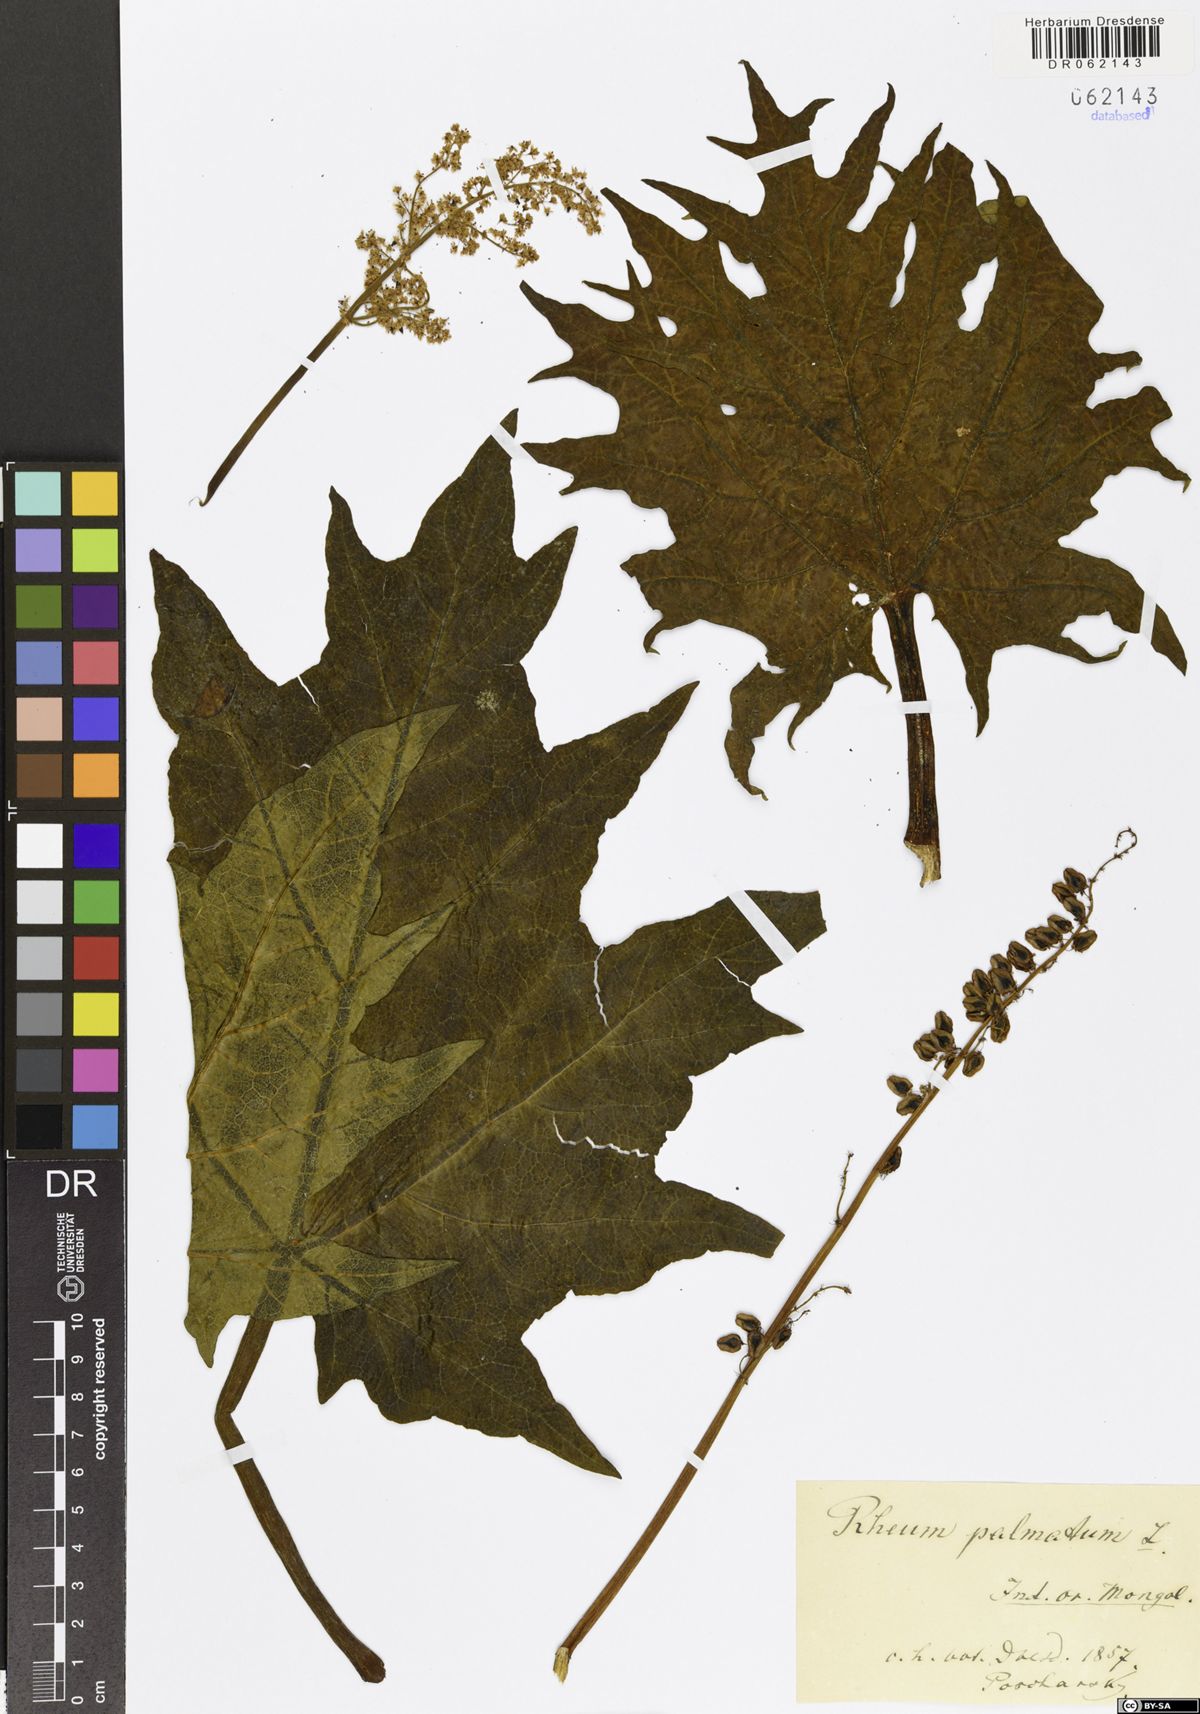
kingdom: Plantae
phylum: Tracheophyta
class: Magnoliopsida
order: Caryophyllales
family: Polygonaceae
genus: Rheum
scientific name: Rheum palmatum
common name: Ornamental rhubarb
